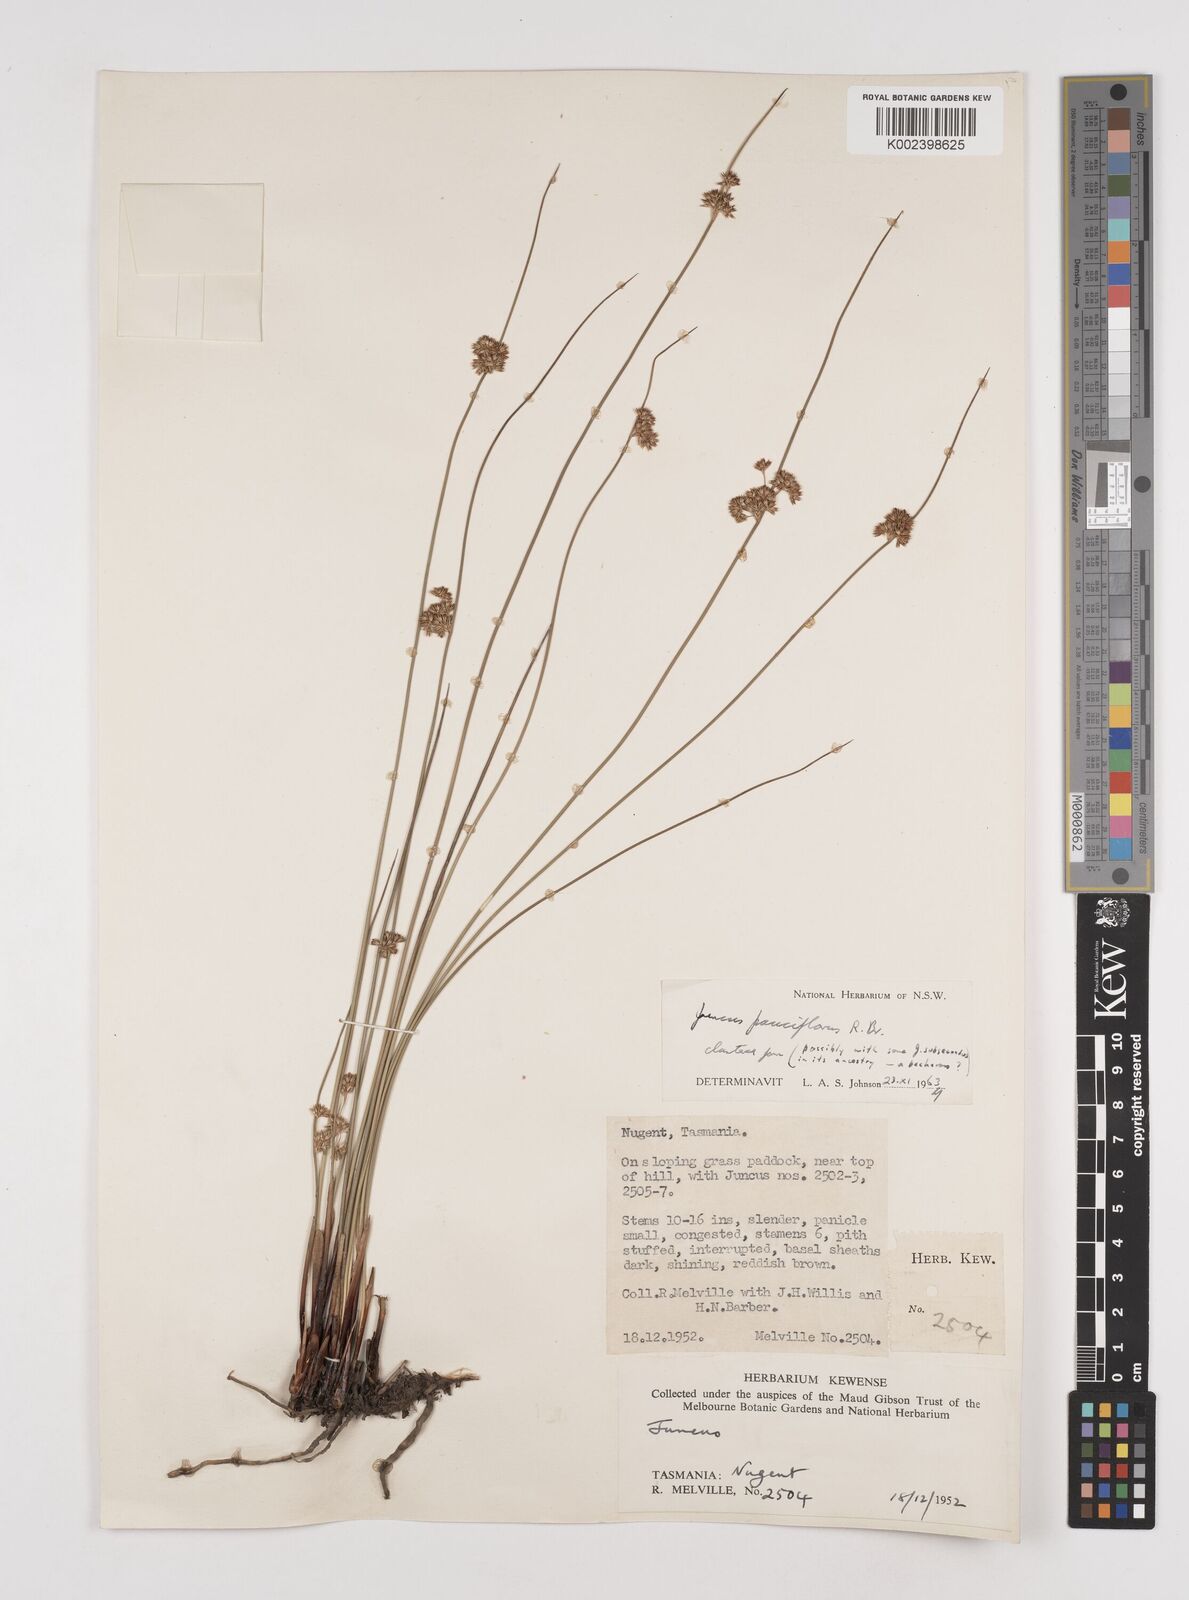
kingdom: Plantae
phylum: Tracheophyta
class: Liliopsida
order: Poales
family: Juncaceae
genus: Juncus
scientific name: Juncus pauciflorus
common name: Loose-flowered rush
